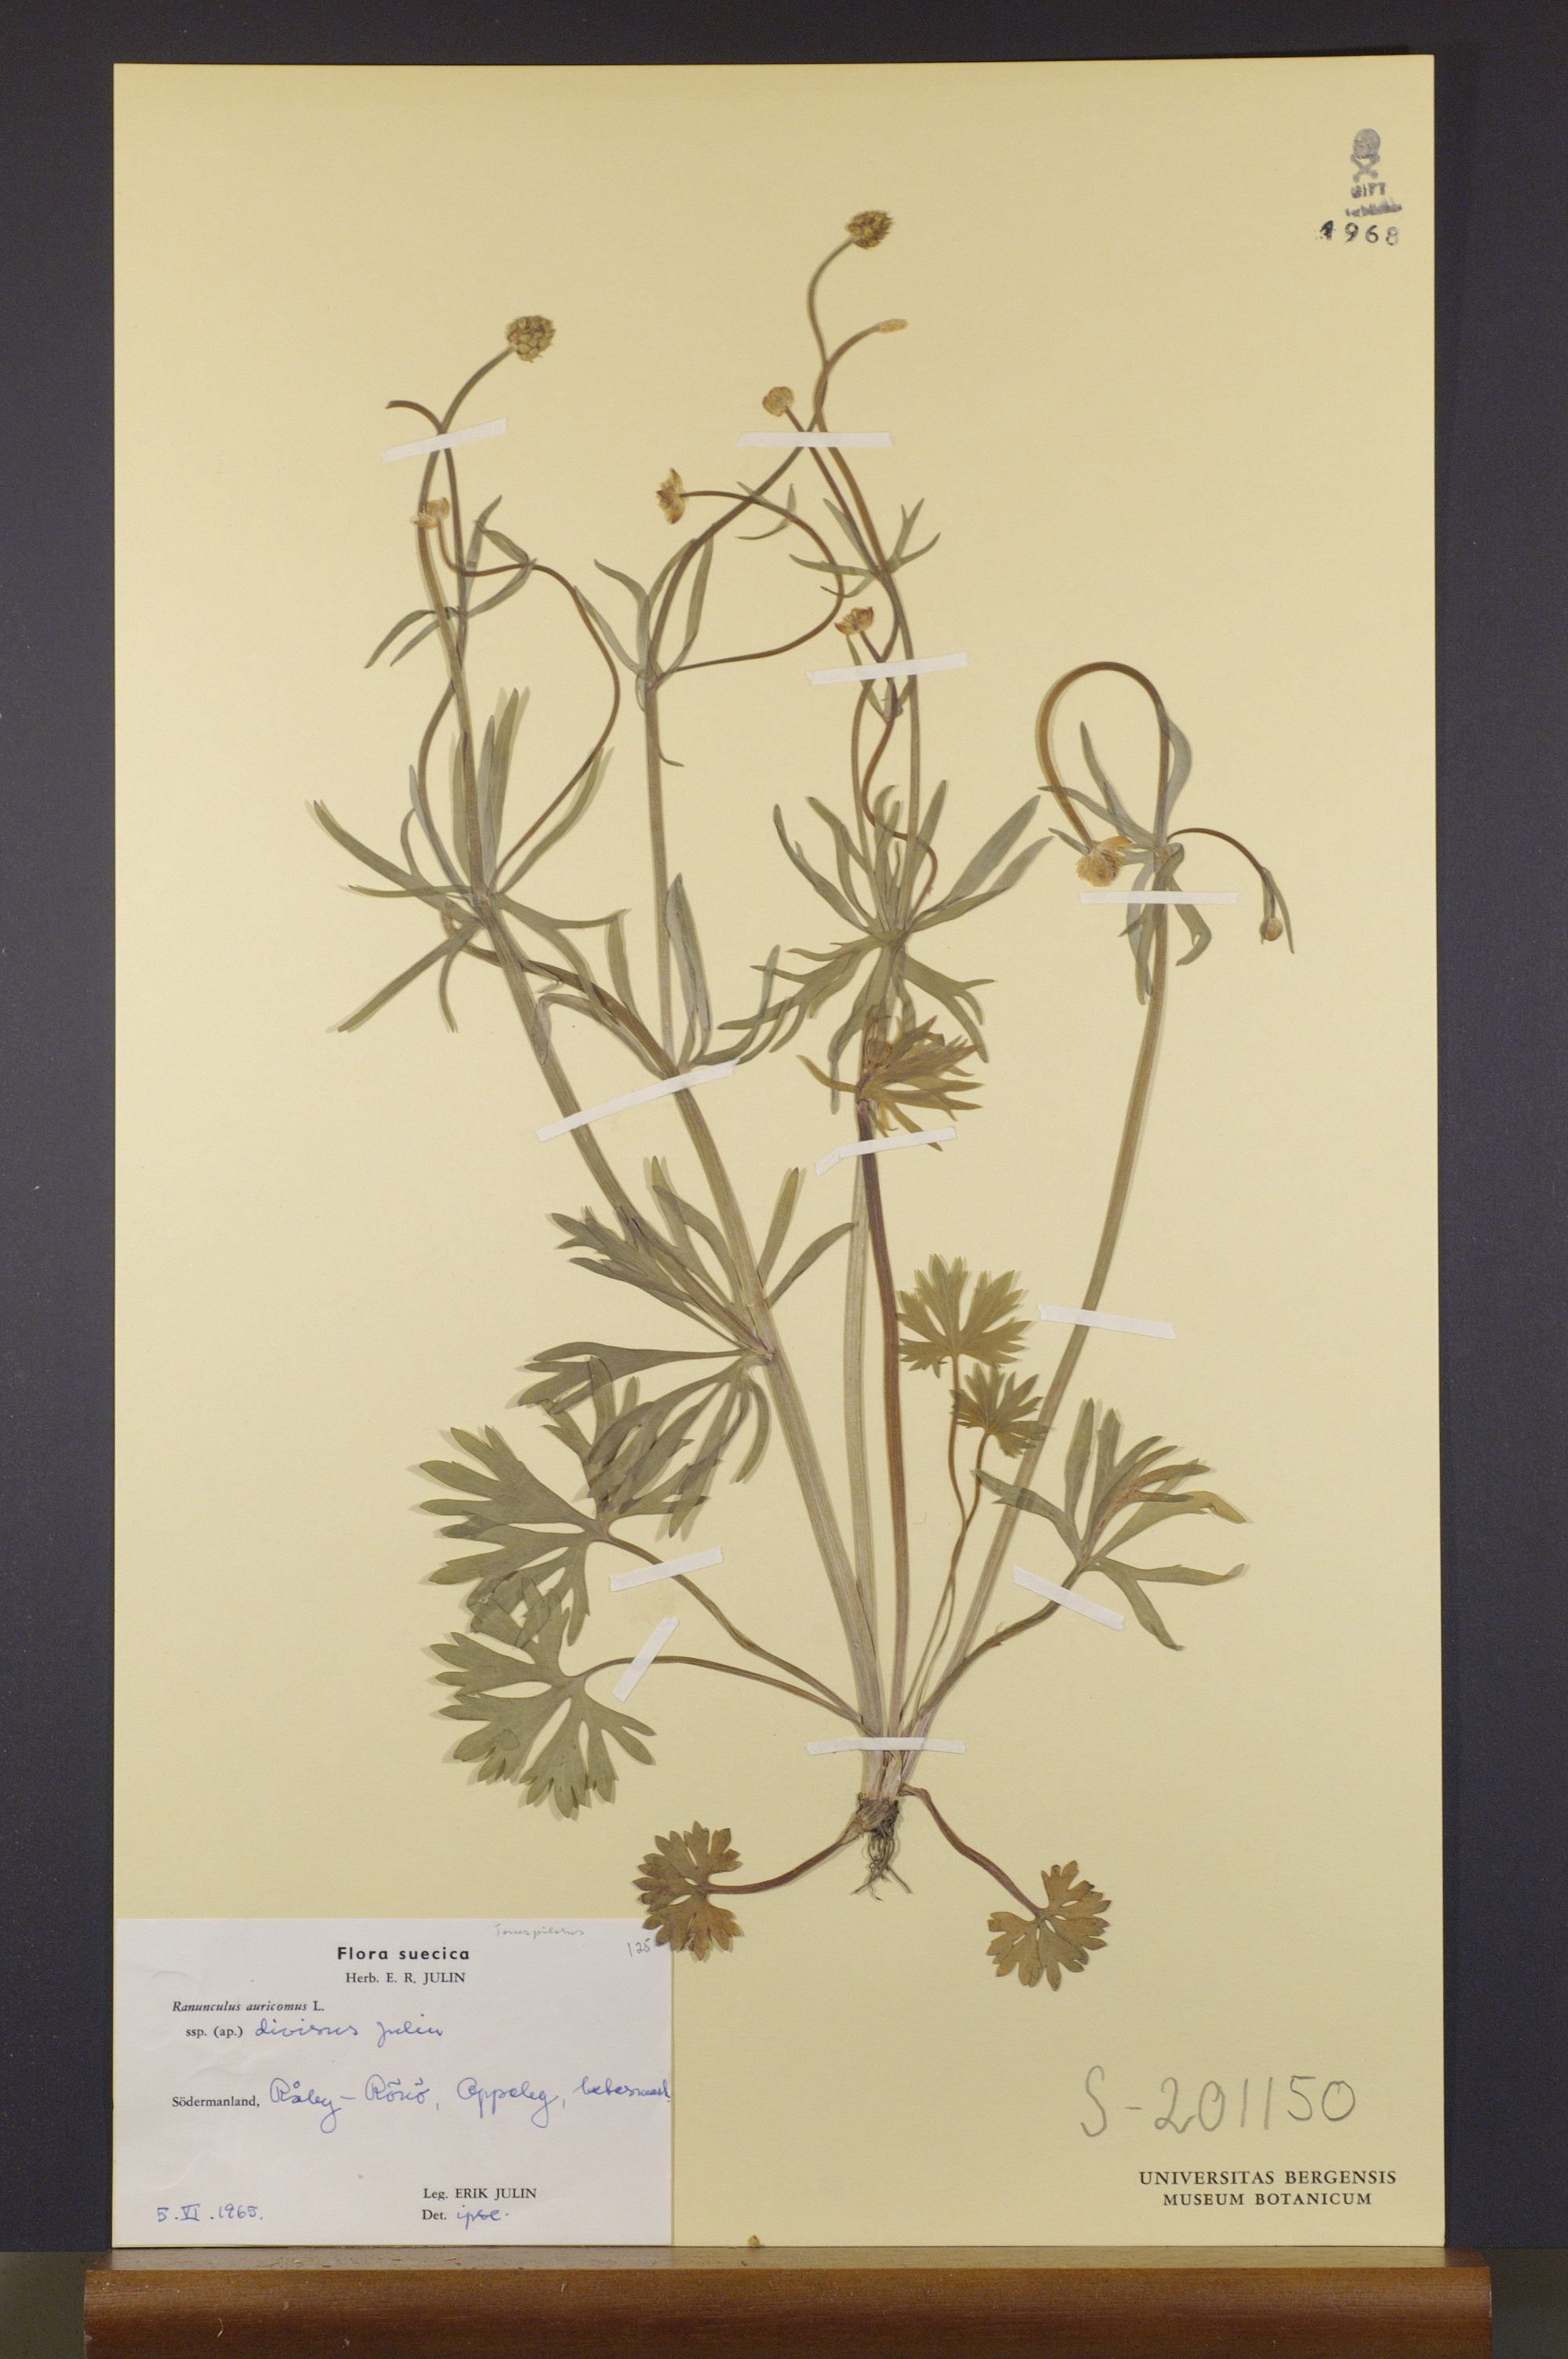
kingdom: Plantae
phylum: Tracheophyta
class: Magnoliopsida
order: Ranunculales
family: Ranunculaceae
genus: Ranunculus
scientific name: Ranunculus auricomus
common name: Goldilocks buttercup
